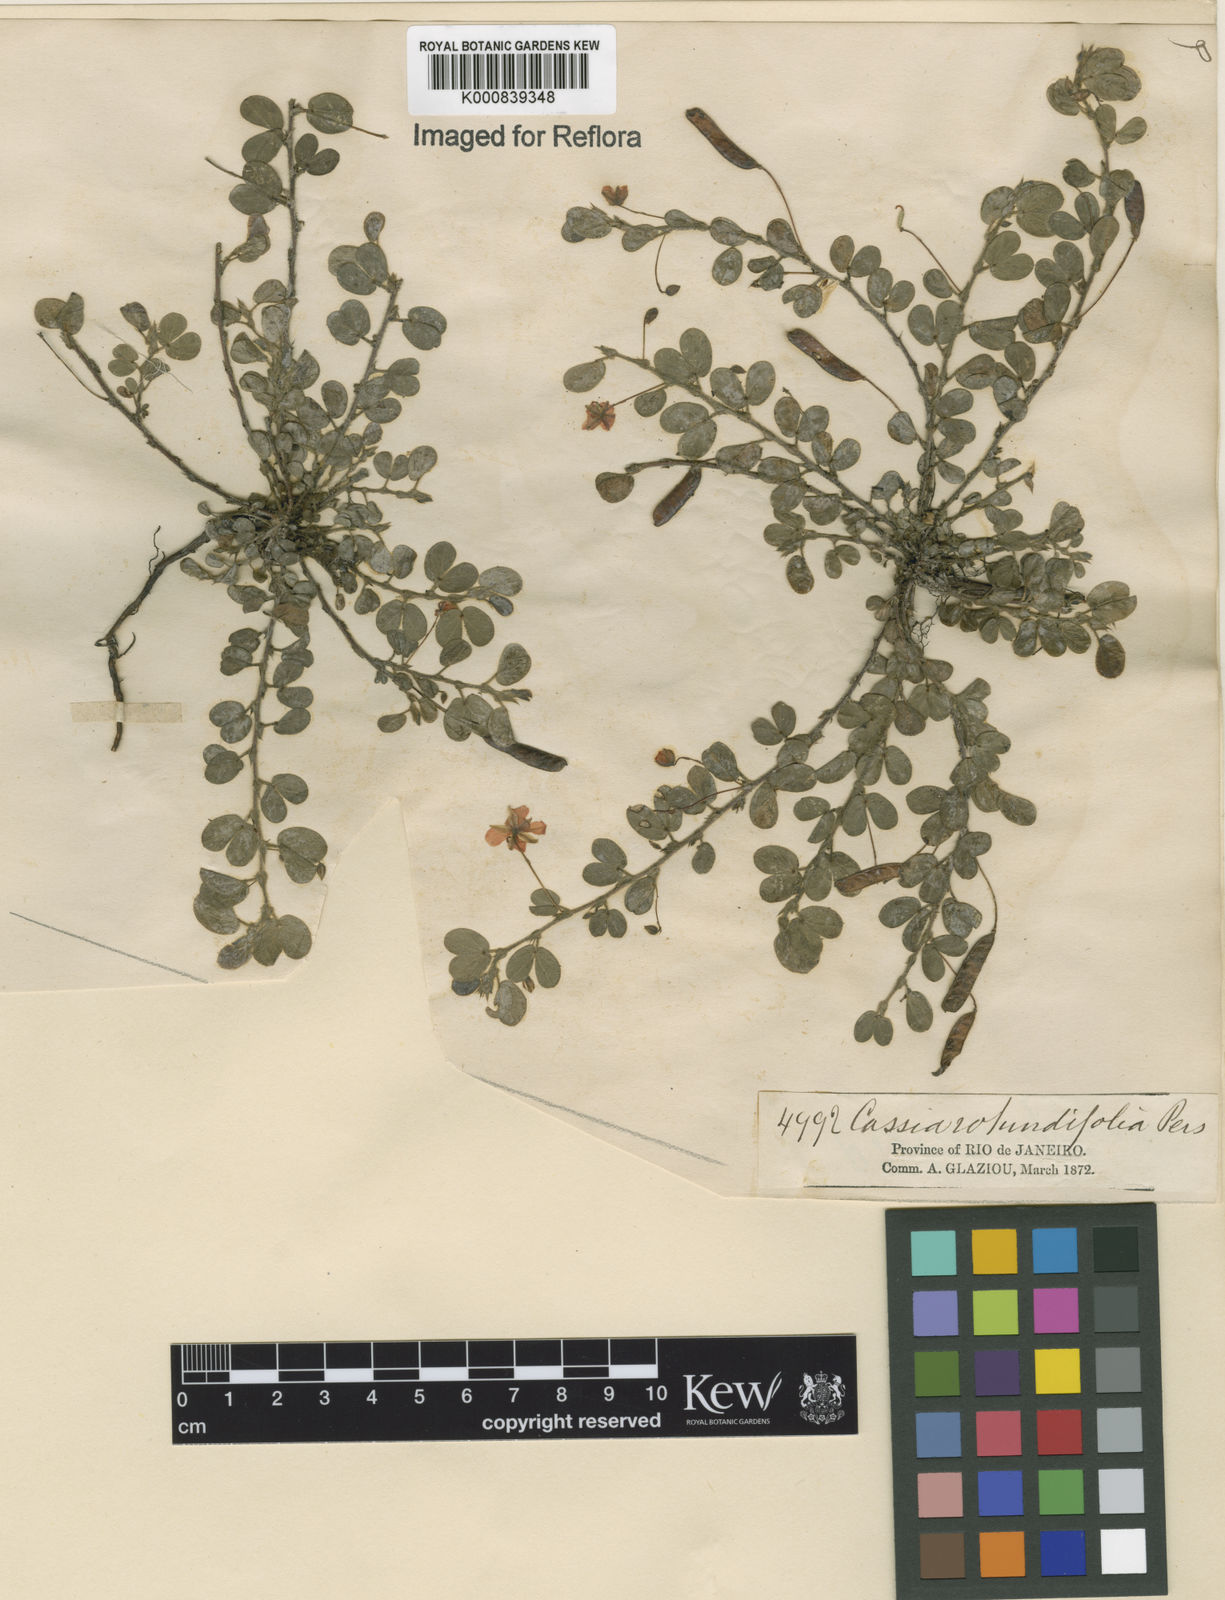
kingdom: Plantae
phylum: Tracheophyta
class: Magnoliopsida
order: Fabales
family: Fabaceae
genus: Chamaecrista
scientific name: Chamaecrista rotundifolia
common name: Round-leaf cassia
